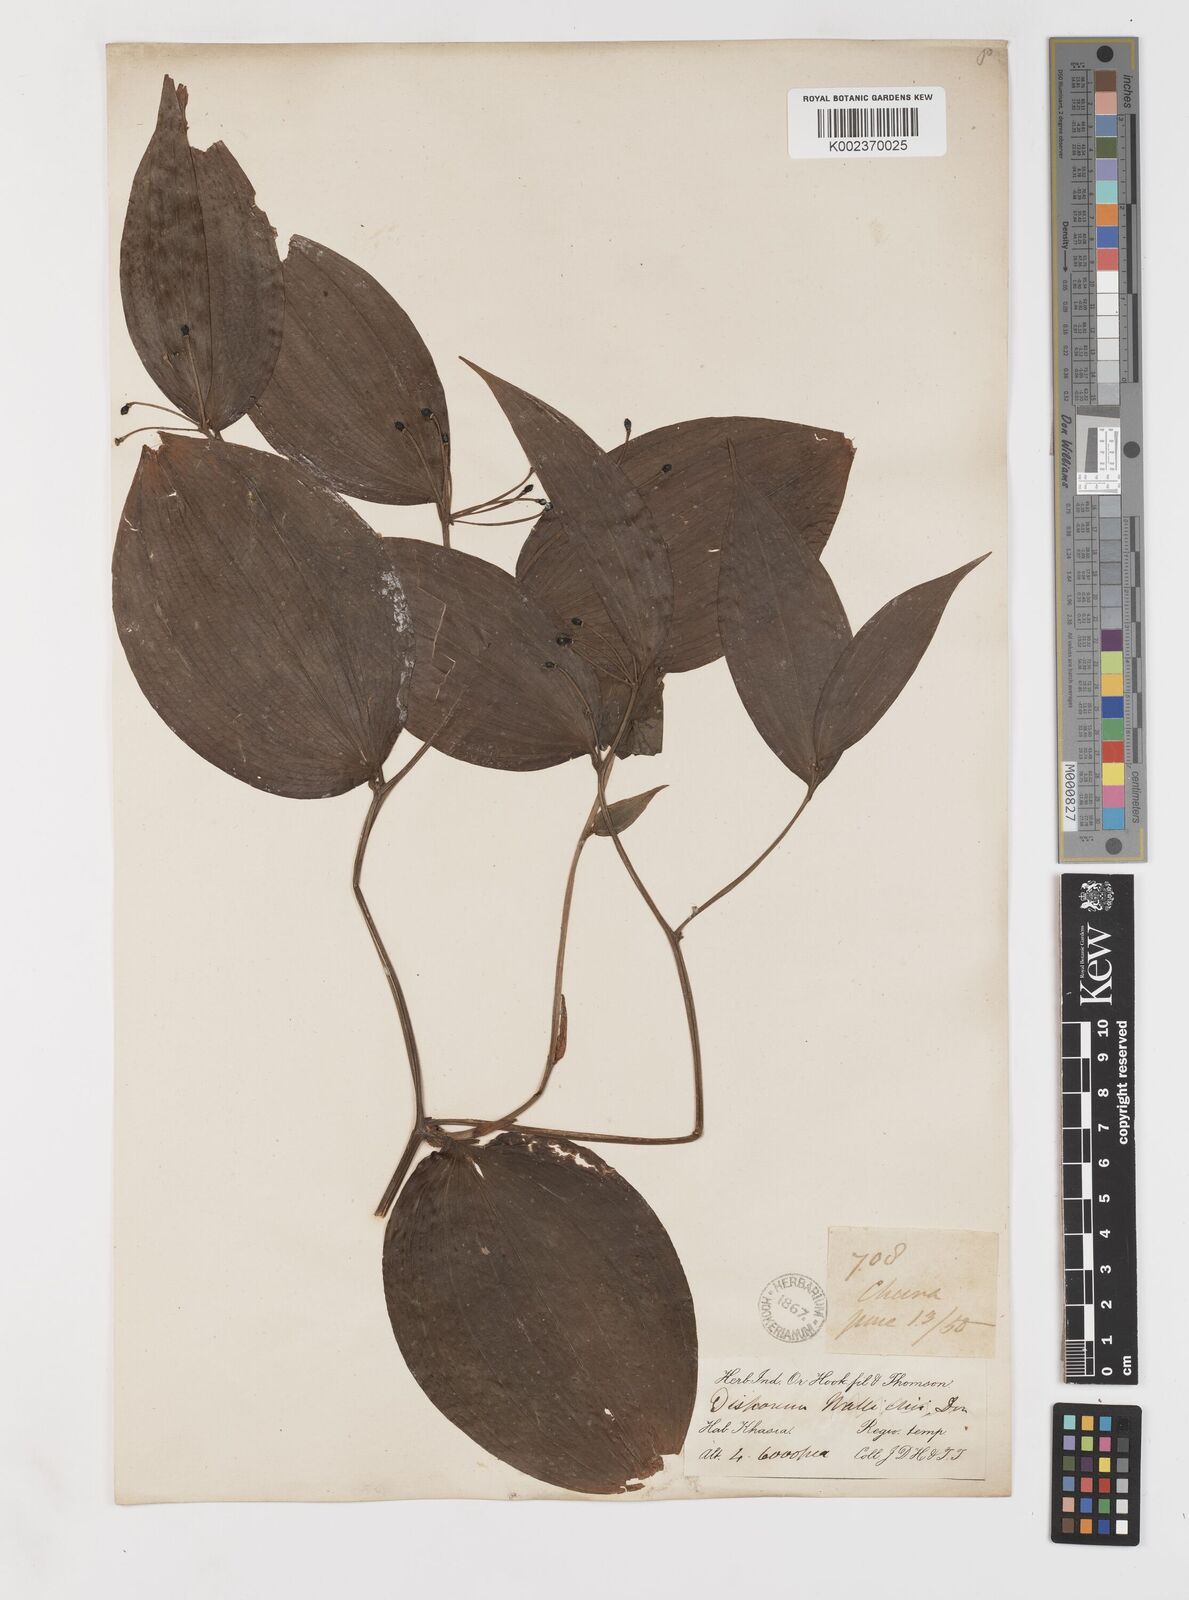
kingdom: Plantae
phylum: Tracheophyta
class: Liliopsida
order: Liliales
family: Colchicaceae
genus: Disporum
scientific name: Disporum cantoniense
